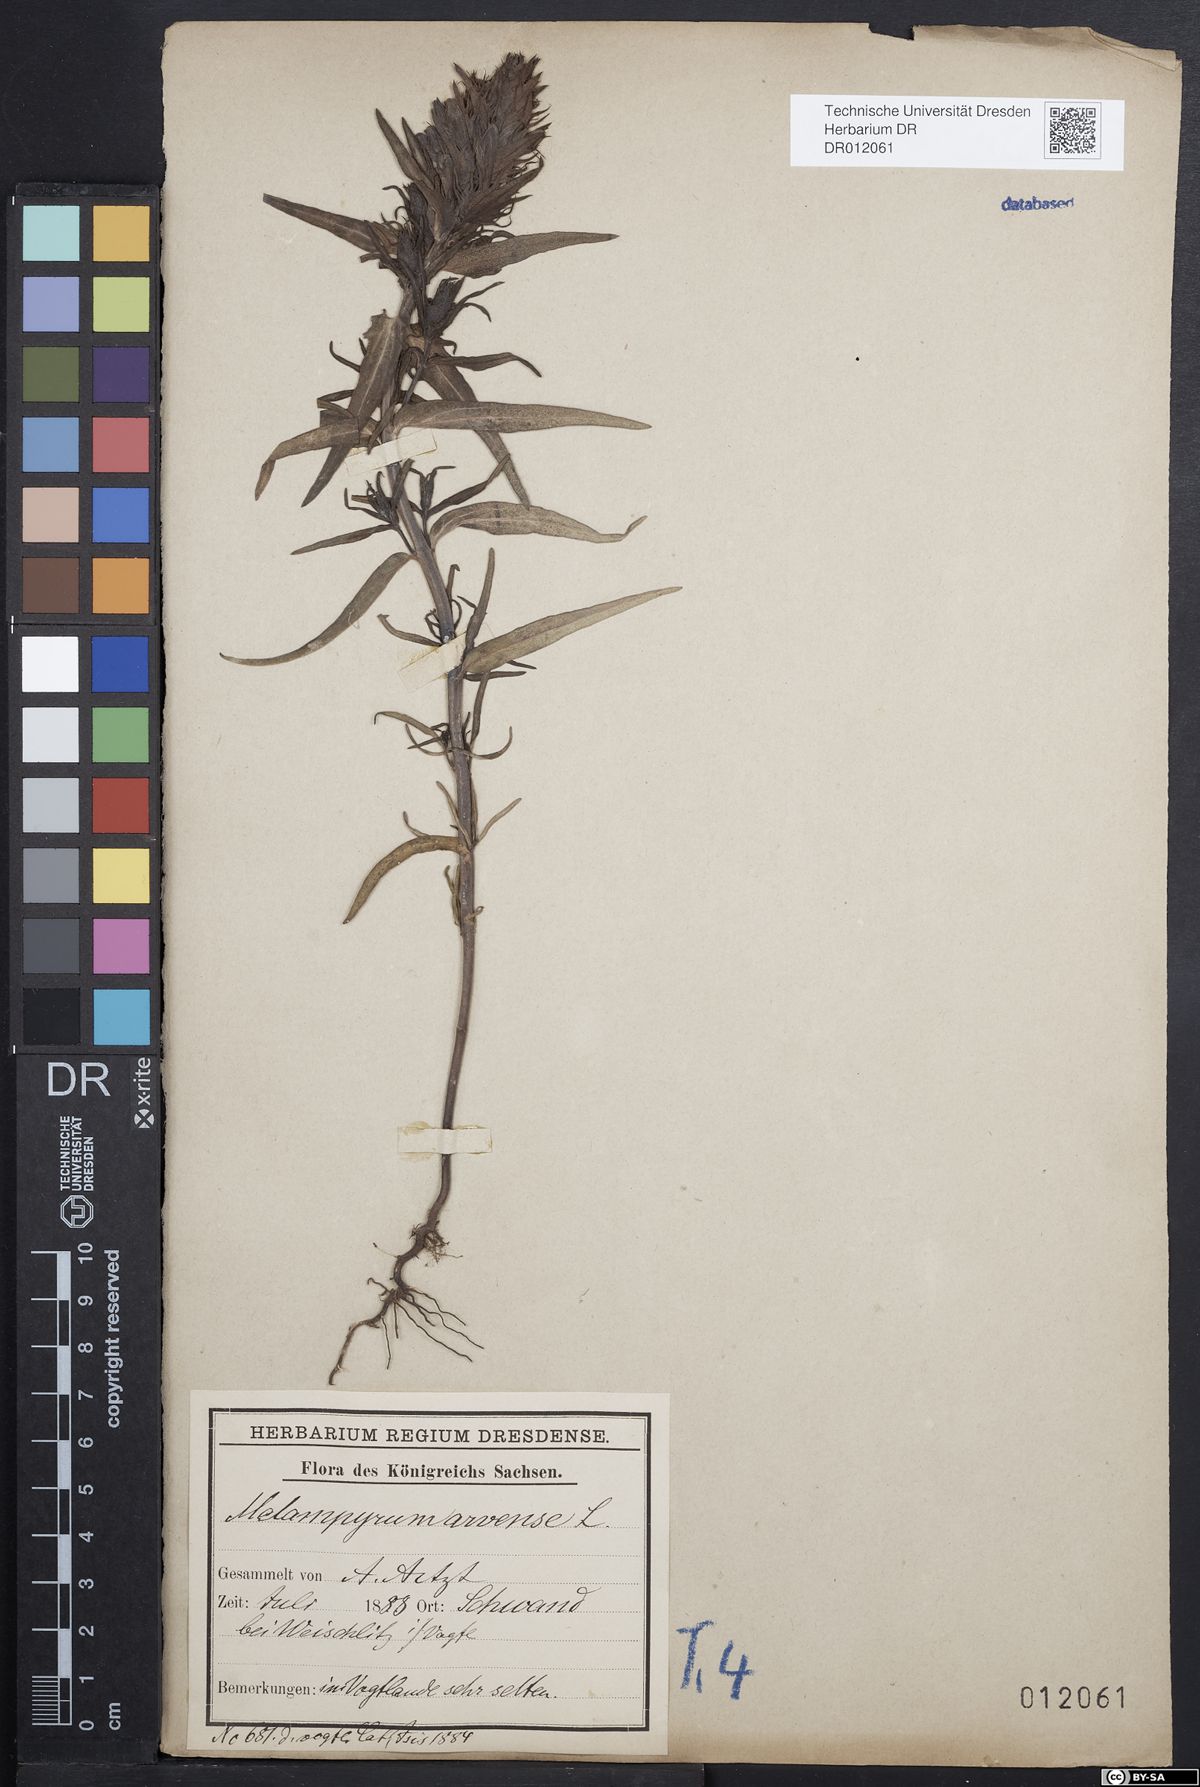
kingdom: Plantae
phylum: Tracheophyta
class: Magnoliopsida
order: Lamiales
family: Orobanchaceae
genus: Melampyrum
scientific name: Melampyrum arvense
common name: Field cow-wheat
